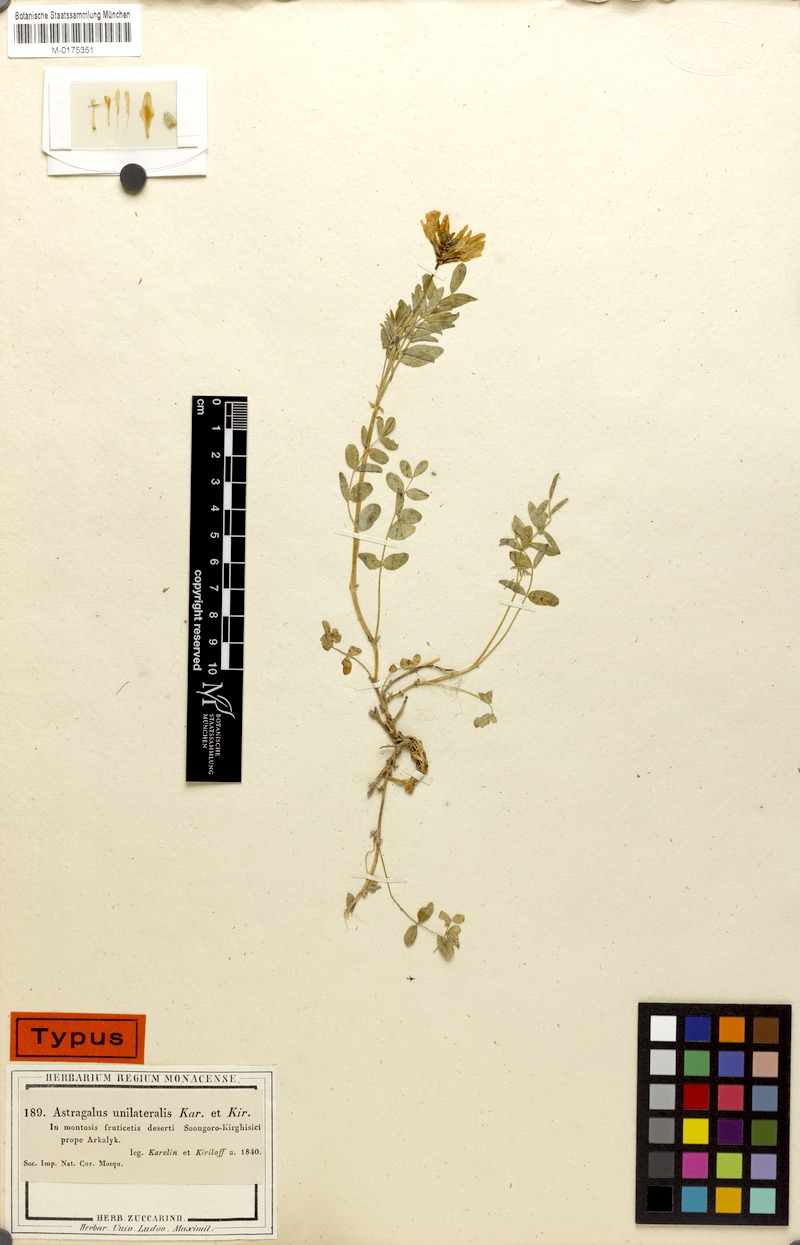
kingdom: Plantae
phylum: Tracheophyta
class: Magnoliopsida
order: Fabales
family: Fabaceae
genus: Astragalus
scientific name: Astragalus unilateralis
